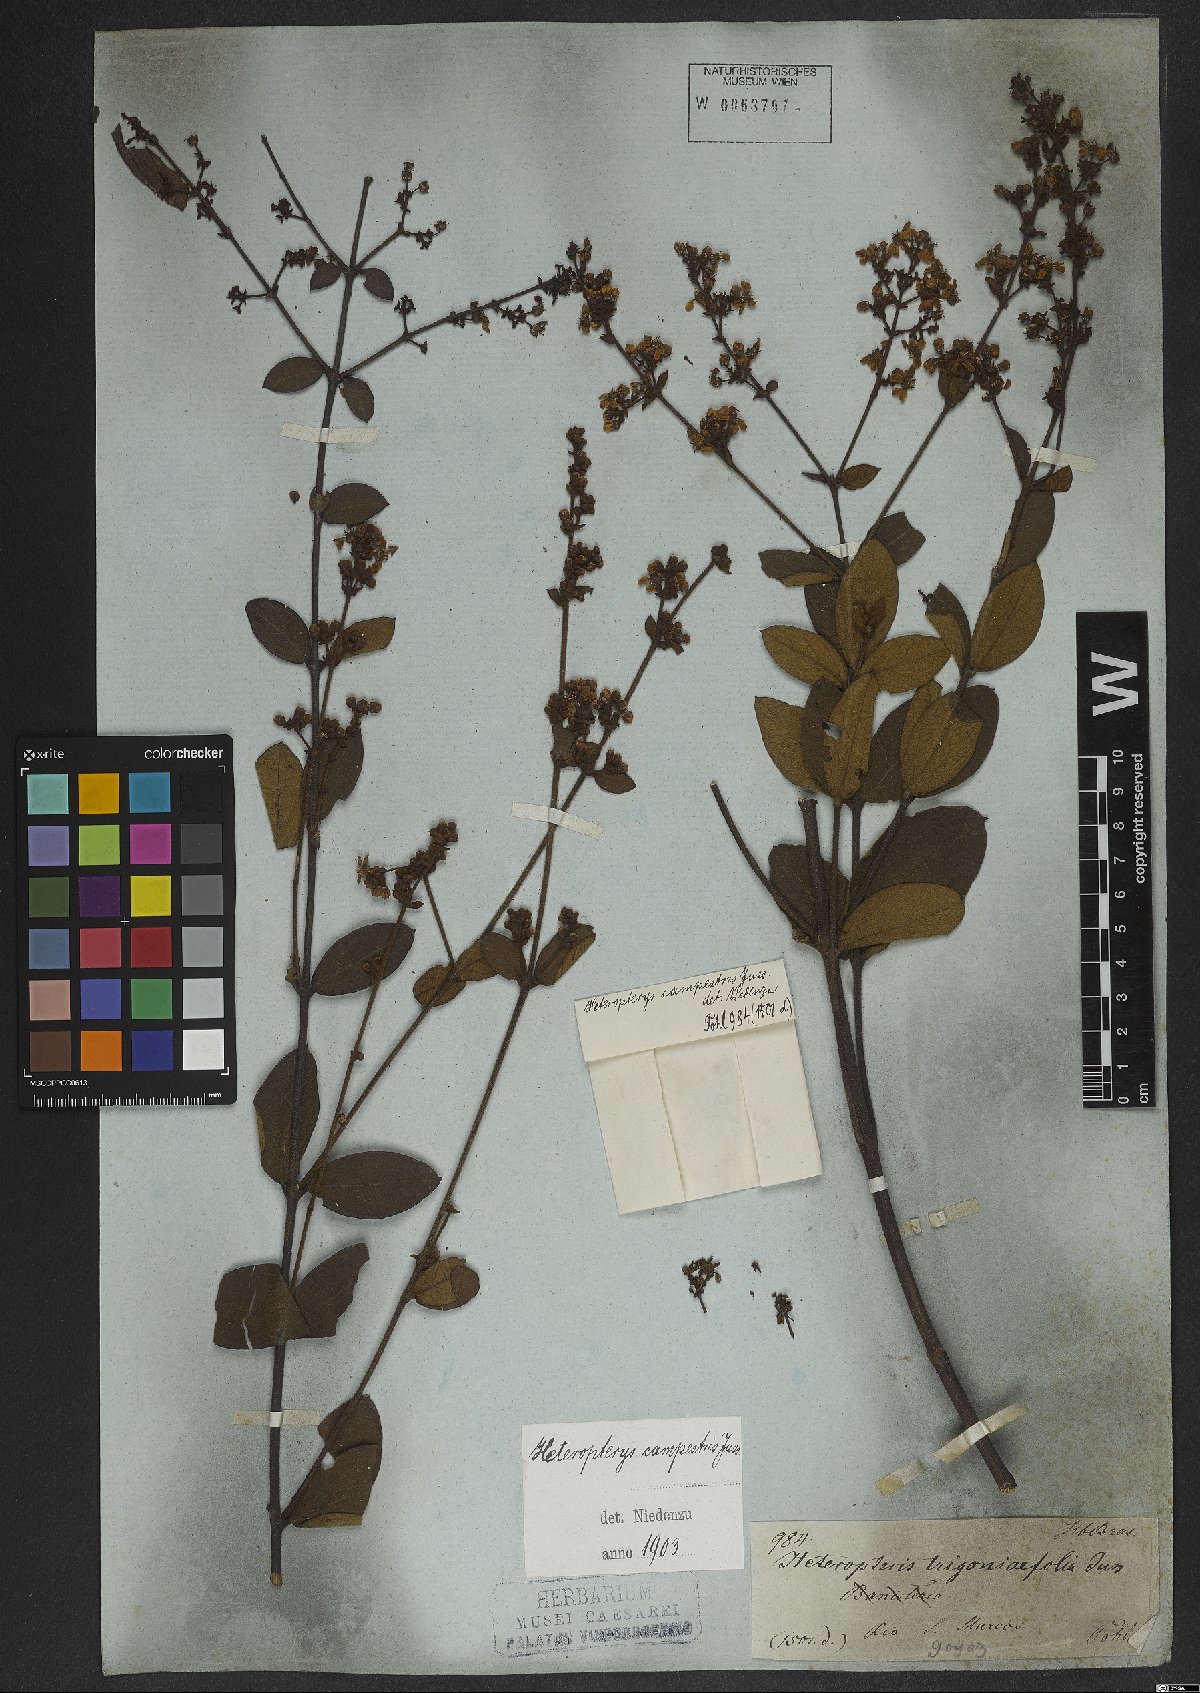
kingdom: Plantae
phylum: Tracheophyta
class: Magnoliopsida
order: Malpighiales
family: Malpighiaceae
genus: Heteropterys
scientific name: Heteropterys campestris
